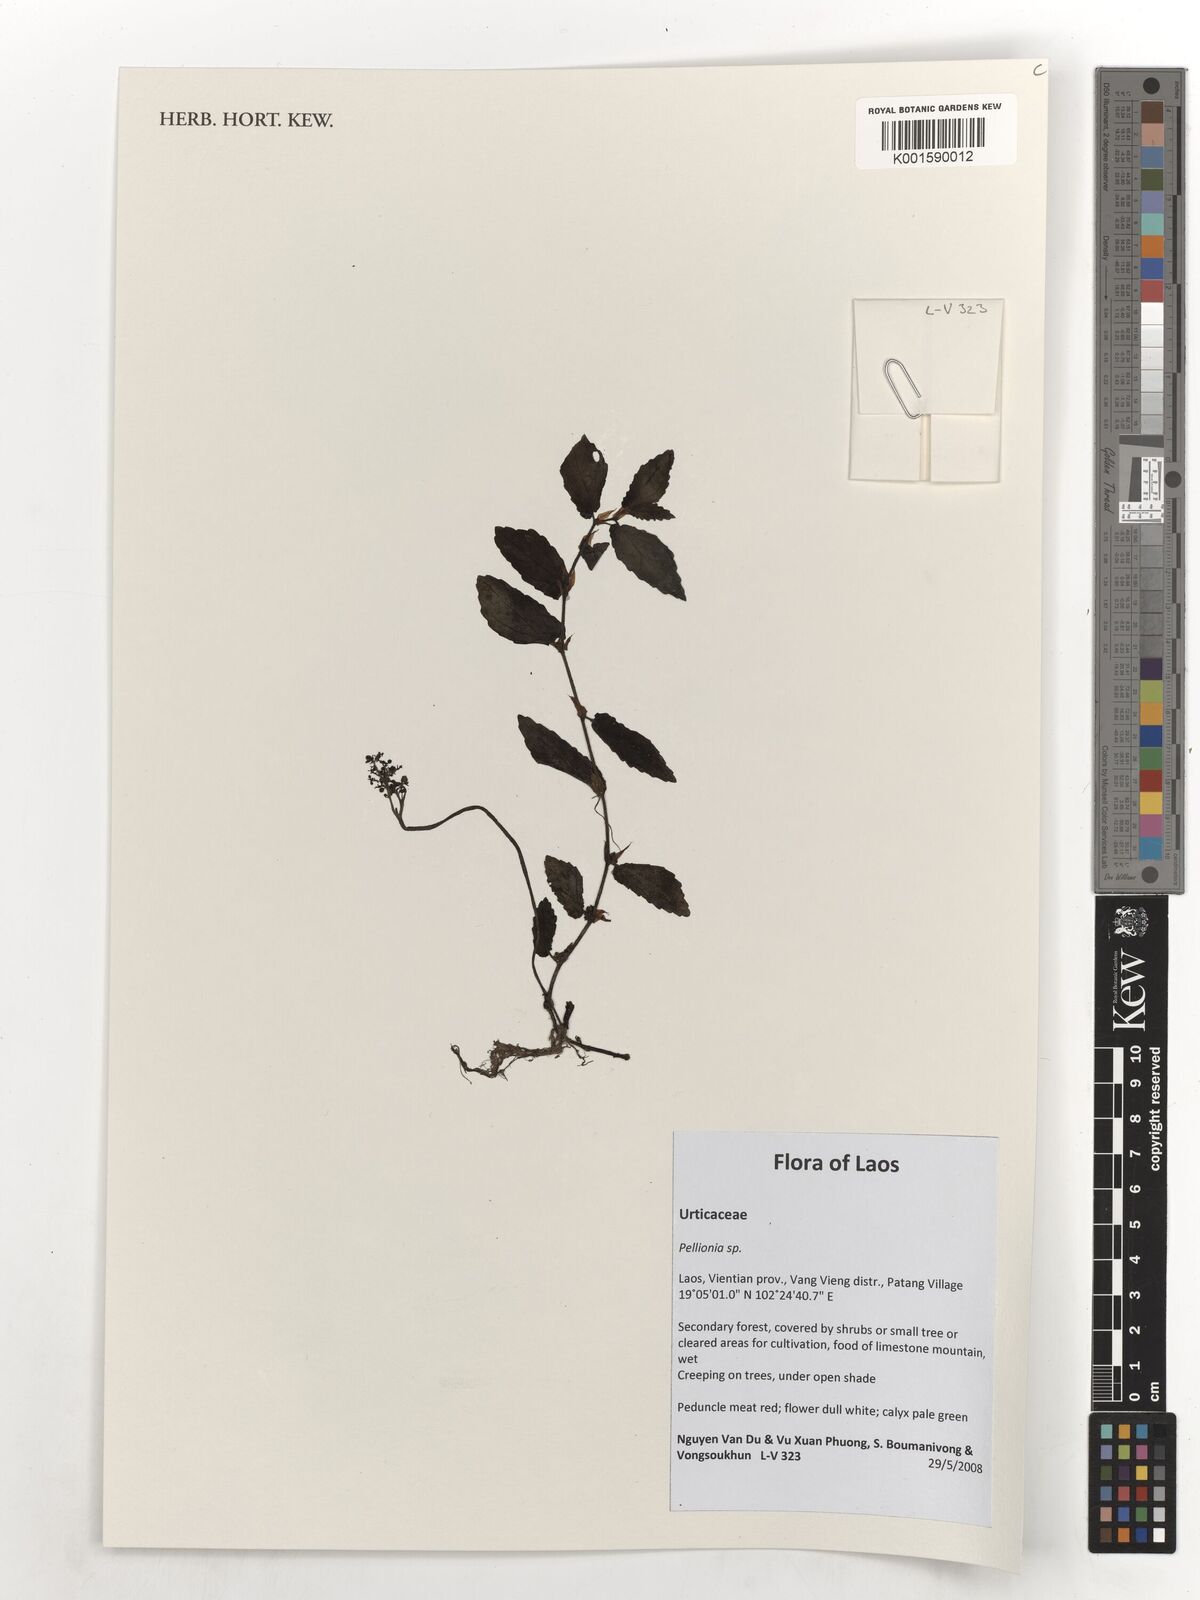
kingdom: Plantae
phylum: Tracheophyta
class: Magnoliopsida
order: Rosales
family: Urticaceae
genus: Pellionia
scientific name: Pellionia
